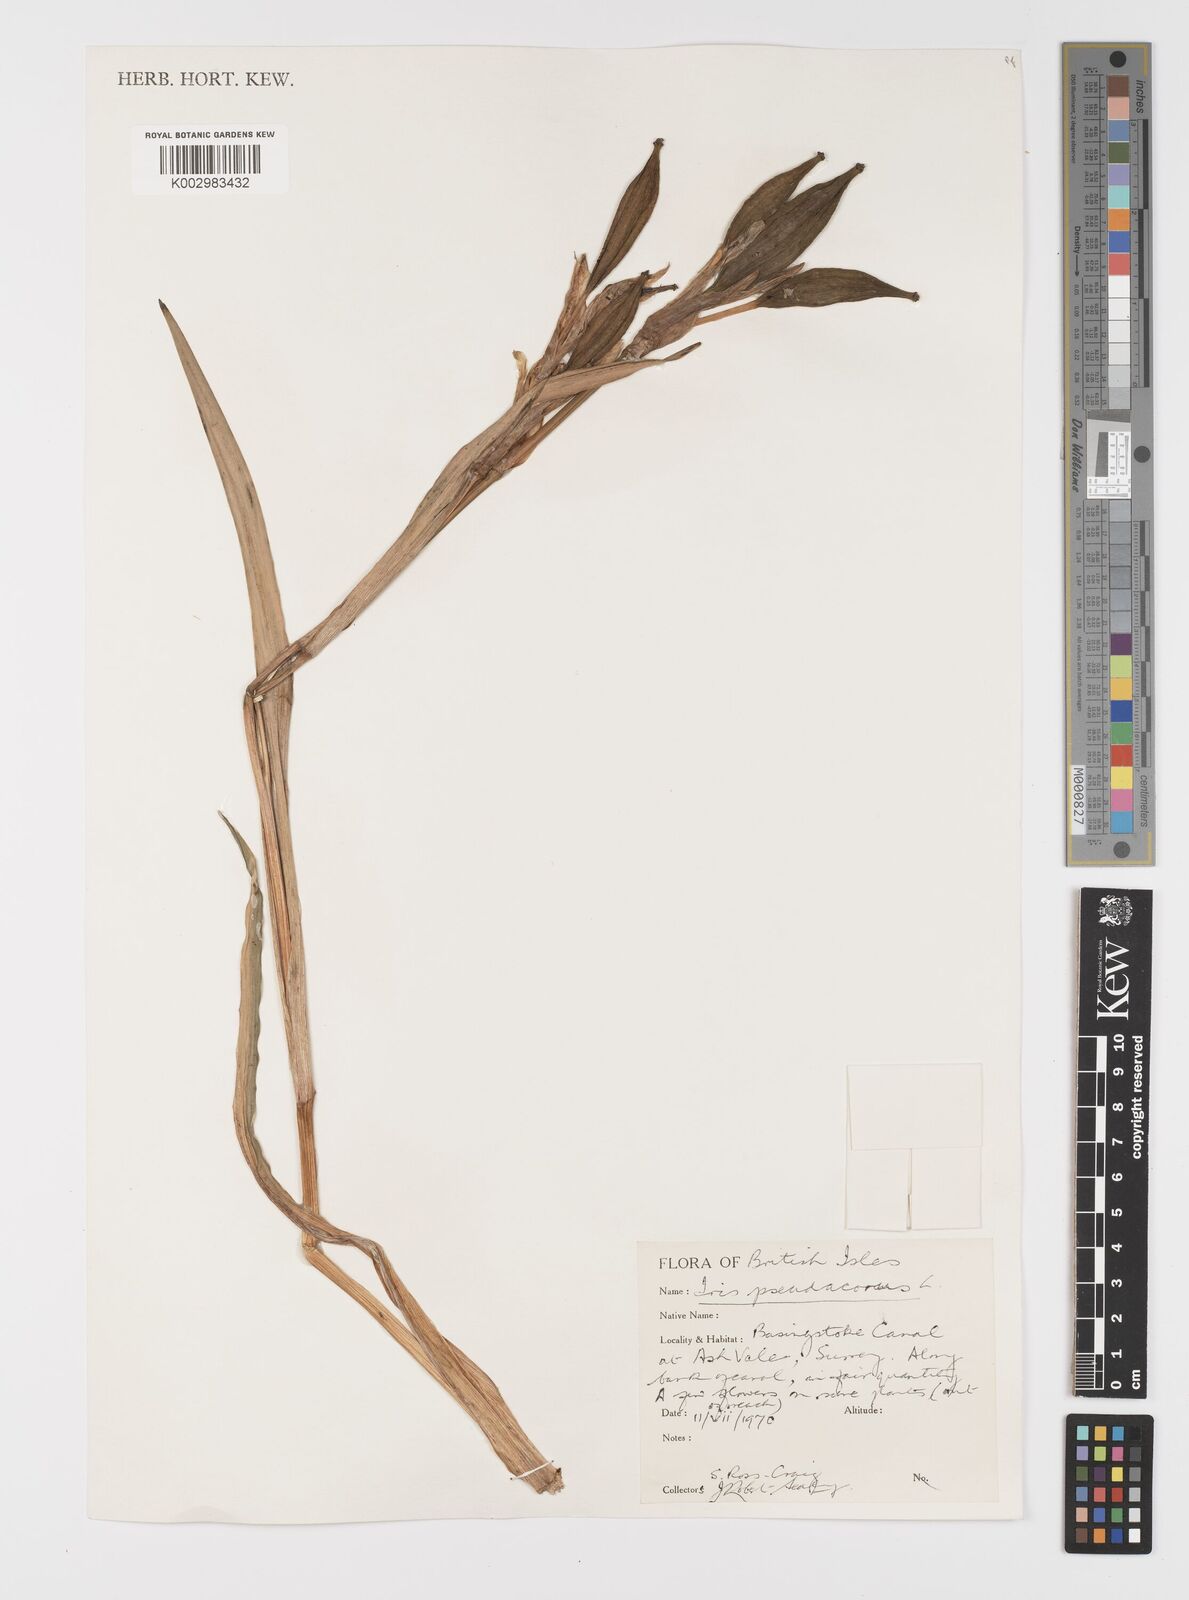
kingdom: Plantae
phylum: Tracheophyta
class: Liliopsida
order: Asparagales
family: Iridaceae
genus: Iris
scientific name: Iris pseudacorus
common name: Yellow flag
